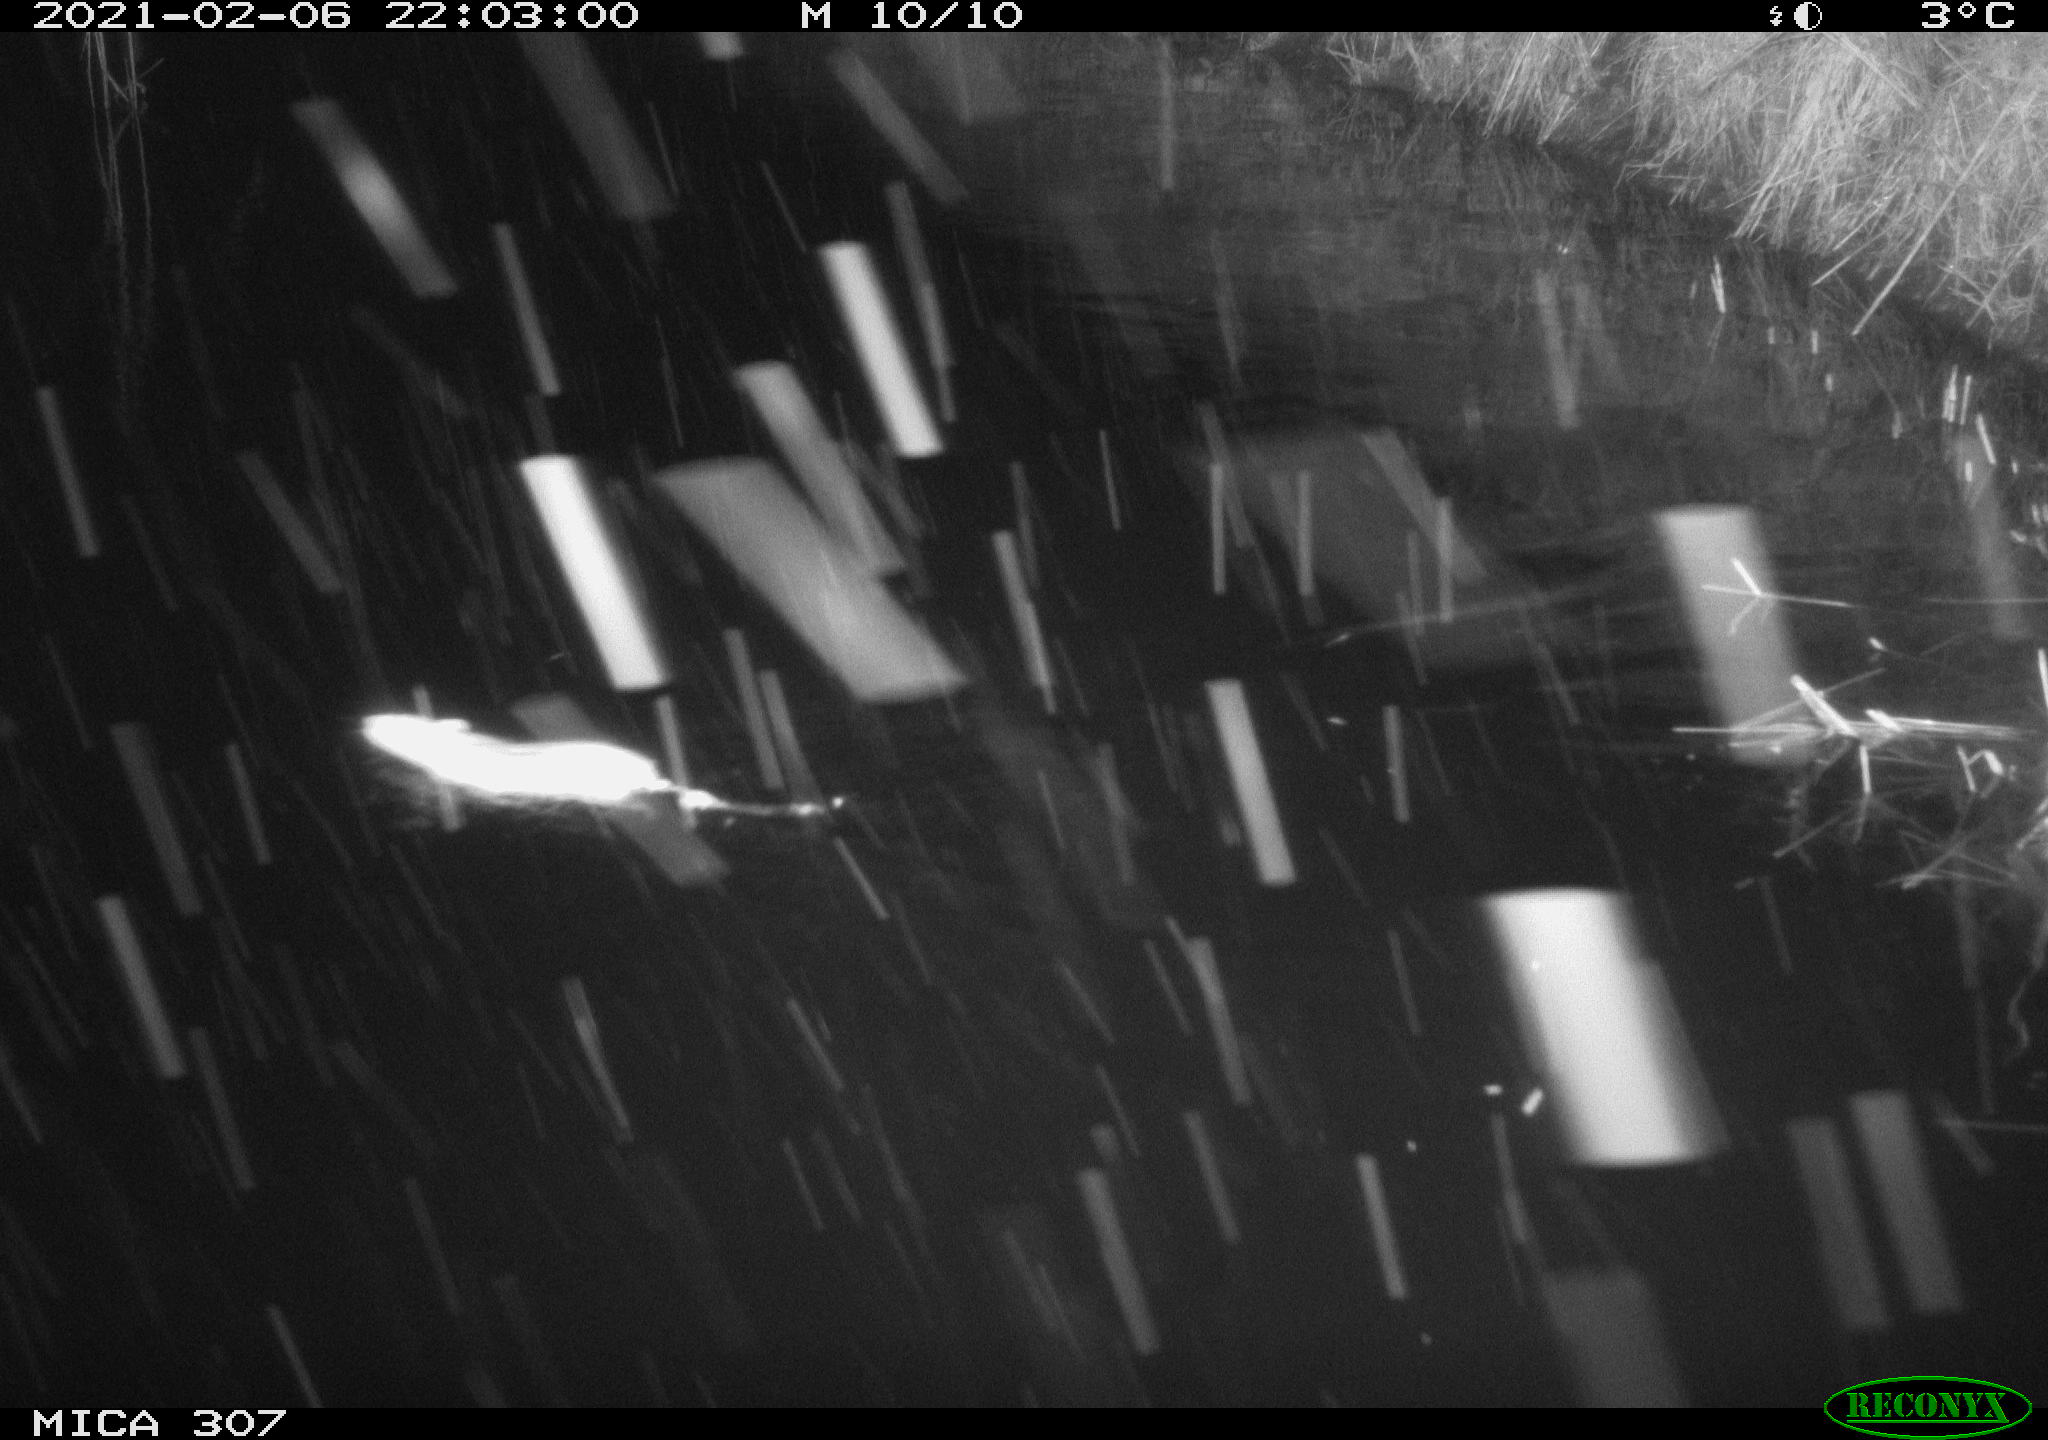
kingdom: Animalia
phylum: Chordata
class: Mammalia
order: Rodentia
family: Muridae
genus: Rattus
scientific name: Rattus norvegicus
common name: Brown rat
